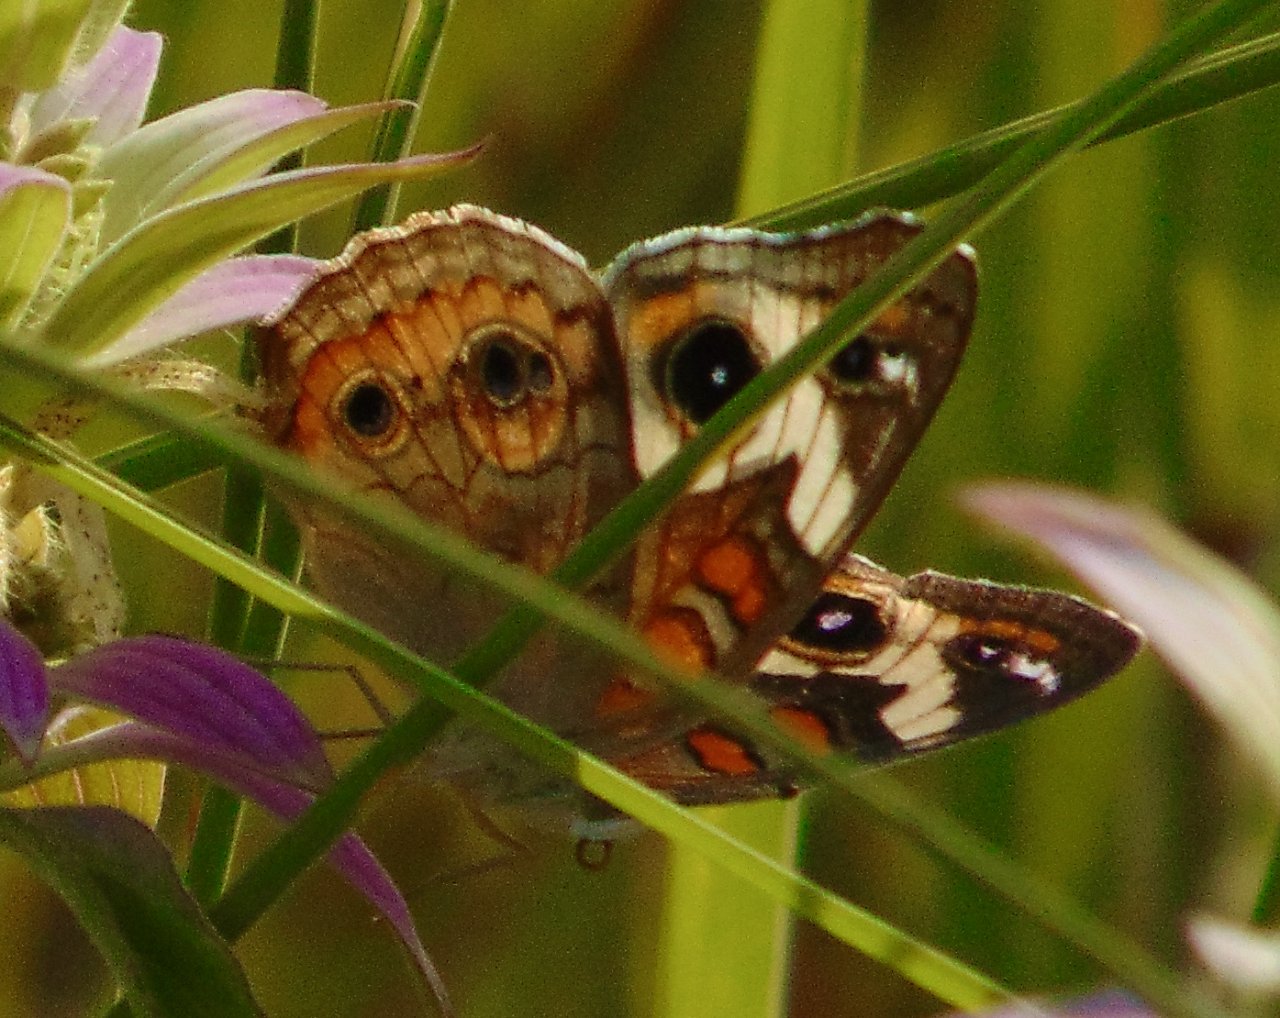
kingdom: Animalia
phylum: Arthropoda
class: Insecta
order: Lepidoptera
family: Nymphalidae
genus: Junonia
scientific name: Junonia coenia
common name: Common Buckeye
